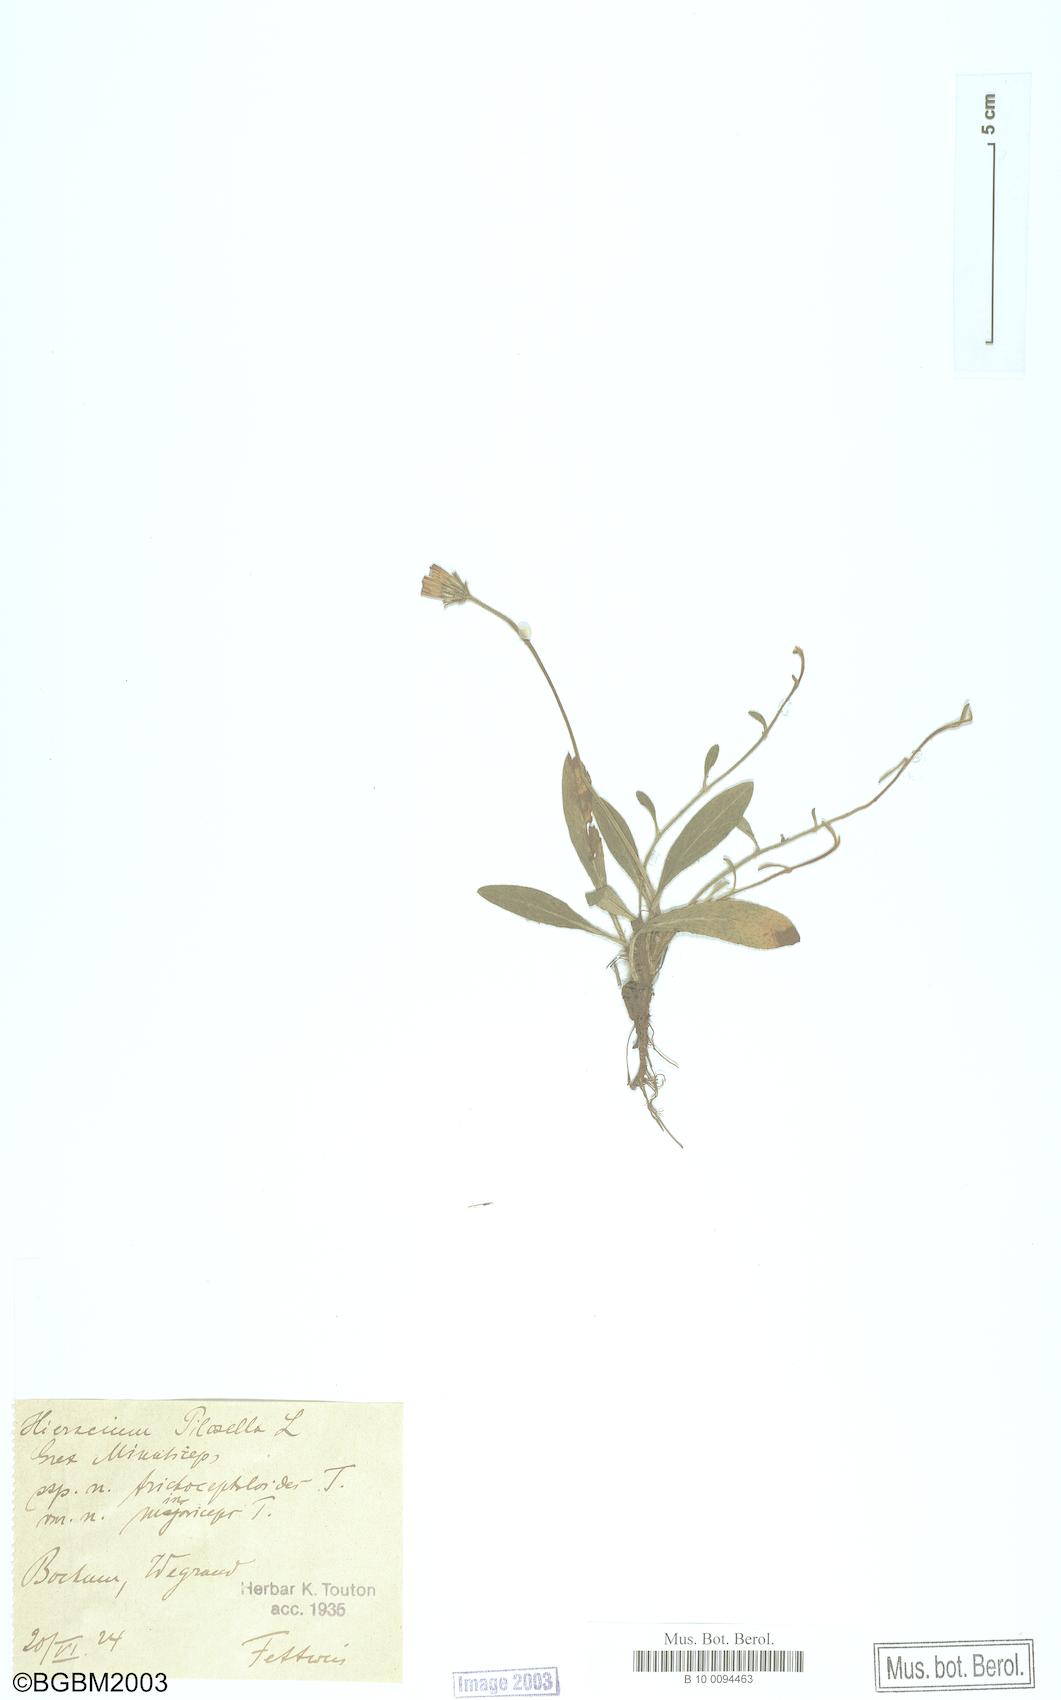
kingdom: Plantae
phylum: Tracheophyta
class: Magnoliopsida
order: Asterales
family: Asteraceae
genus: Pilosella
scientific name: Pilosella officinarum
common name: Mouse-ear hawkweed
